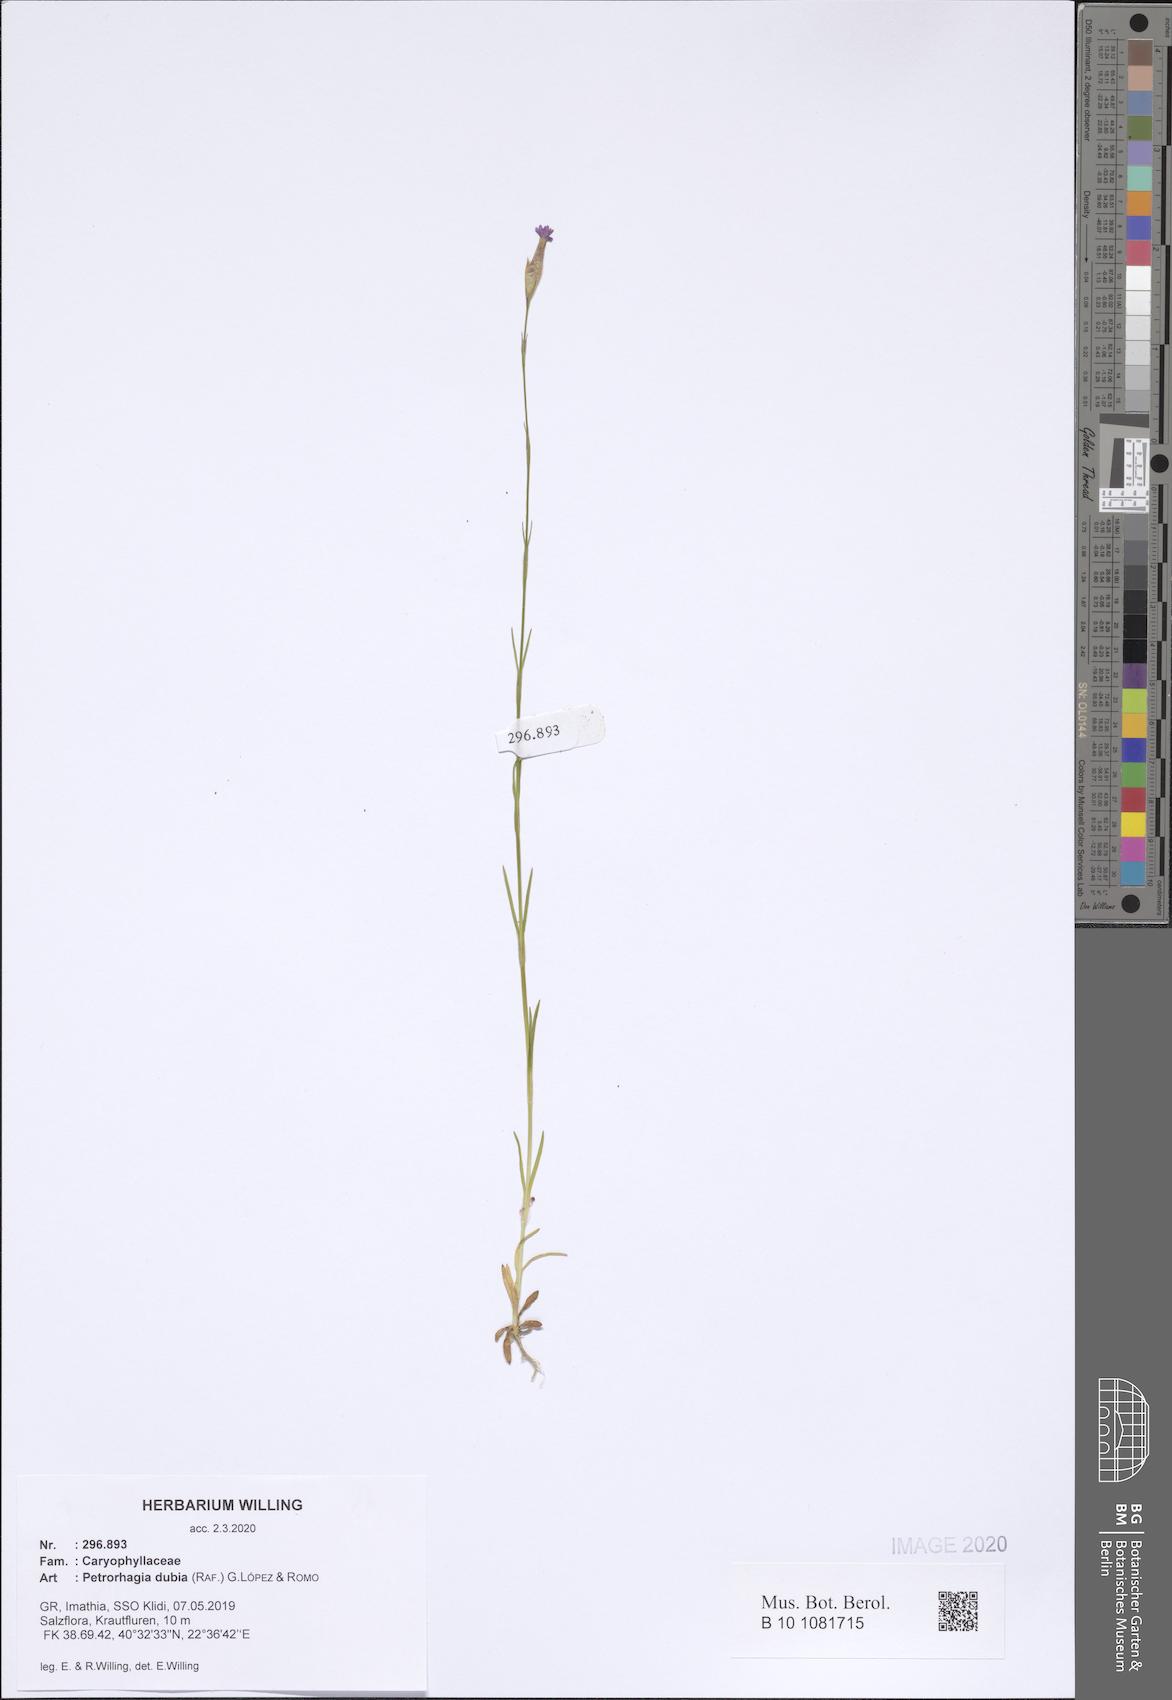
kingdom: Plantae
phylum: Tracheophyta
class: Magnoliopsida
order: Caryophyllales
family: Caryophyllaceae
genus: Petrorhagia
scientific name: Petrorhagia dubia
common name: Hairypink
